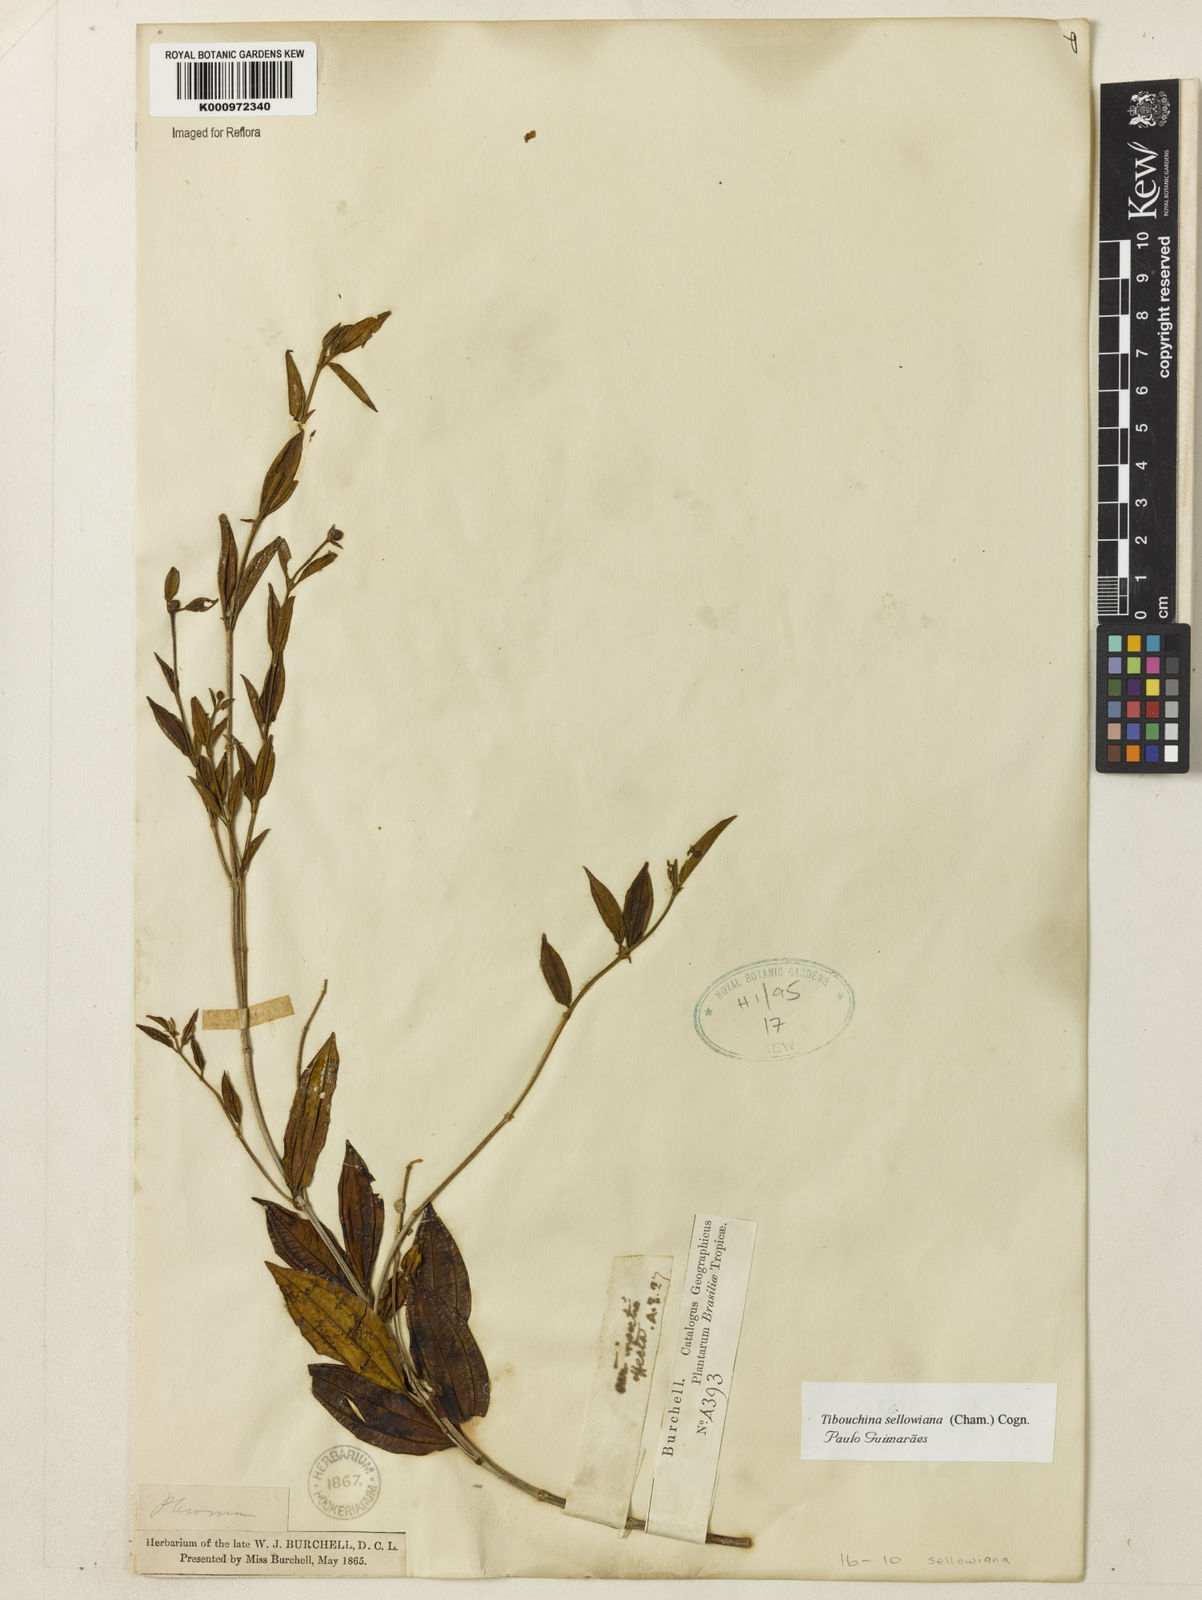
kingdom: Plantae
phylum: Tracheophyta
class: Magnoliopsida
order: Myrtales
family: Melastomataceae
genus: Pleroma
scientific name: Pleroma sellowianum
